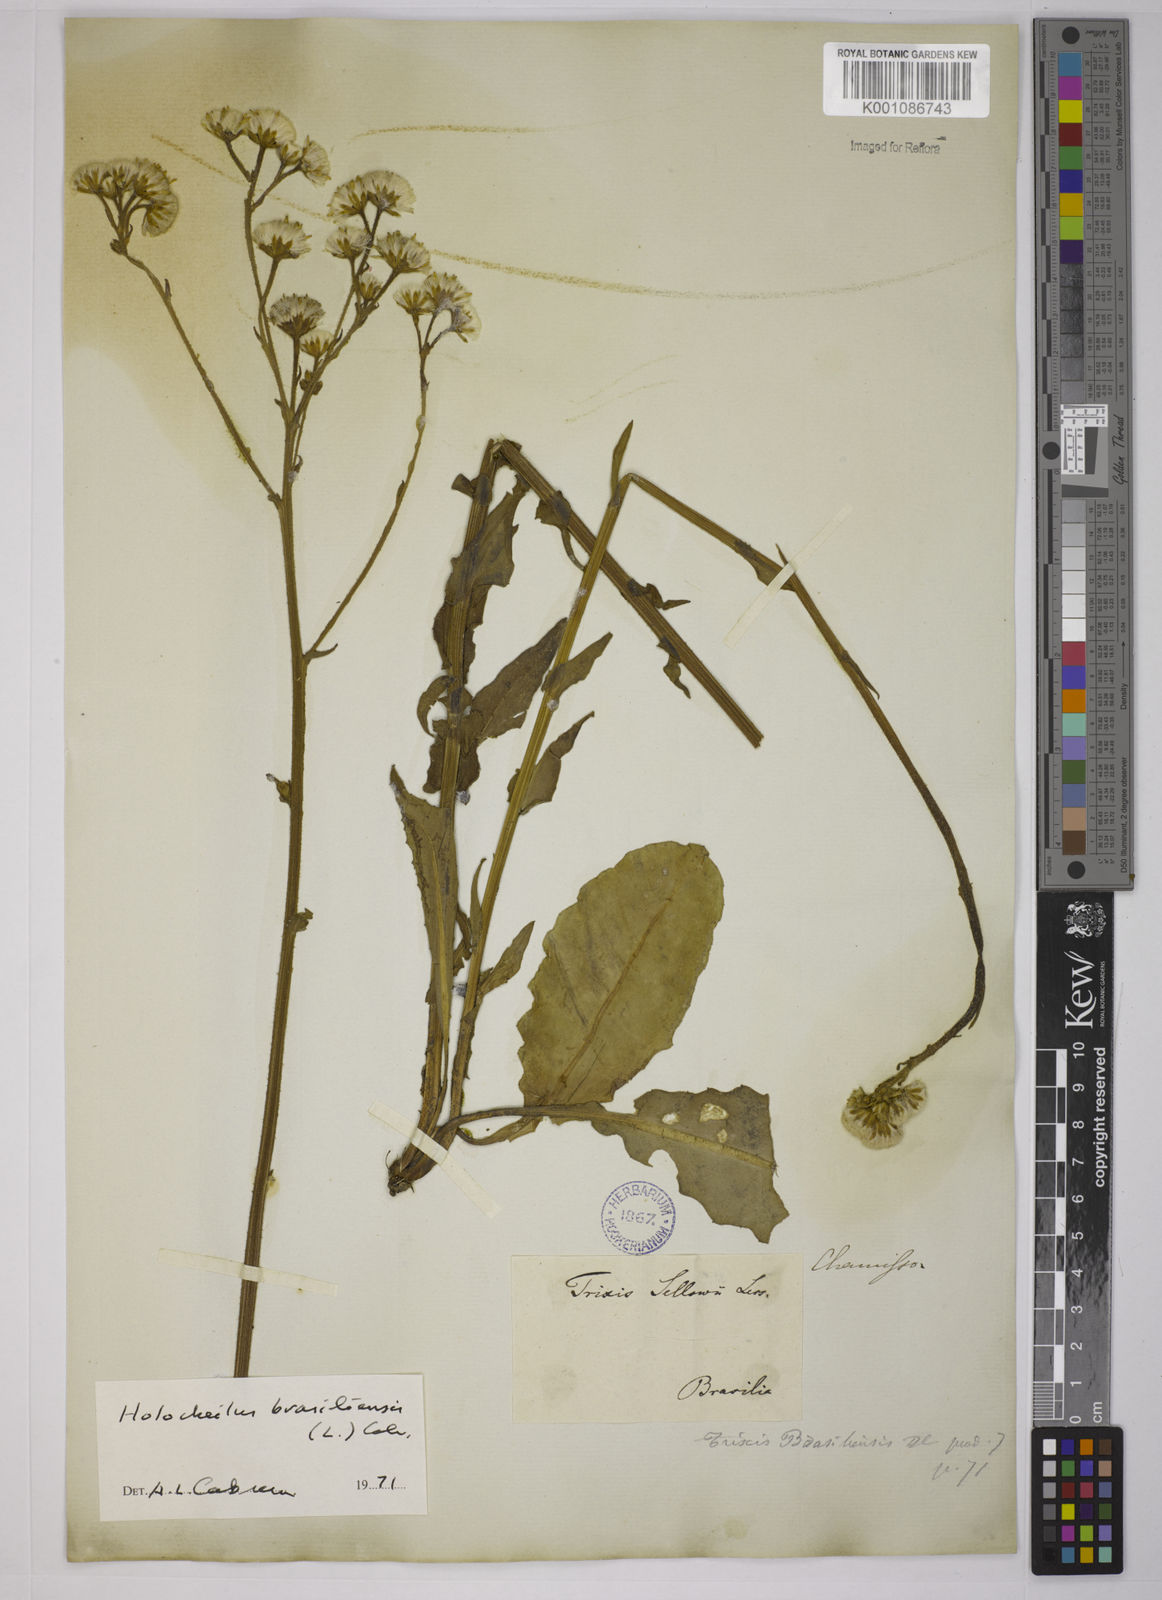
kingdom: Plantae
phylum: Tracheophyta
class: Magnoliopsida
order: Asterales
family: Asteraceae
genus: Holocheilus
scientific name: Holocheilus brasiliensis
